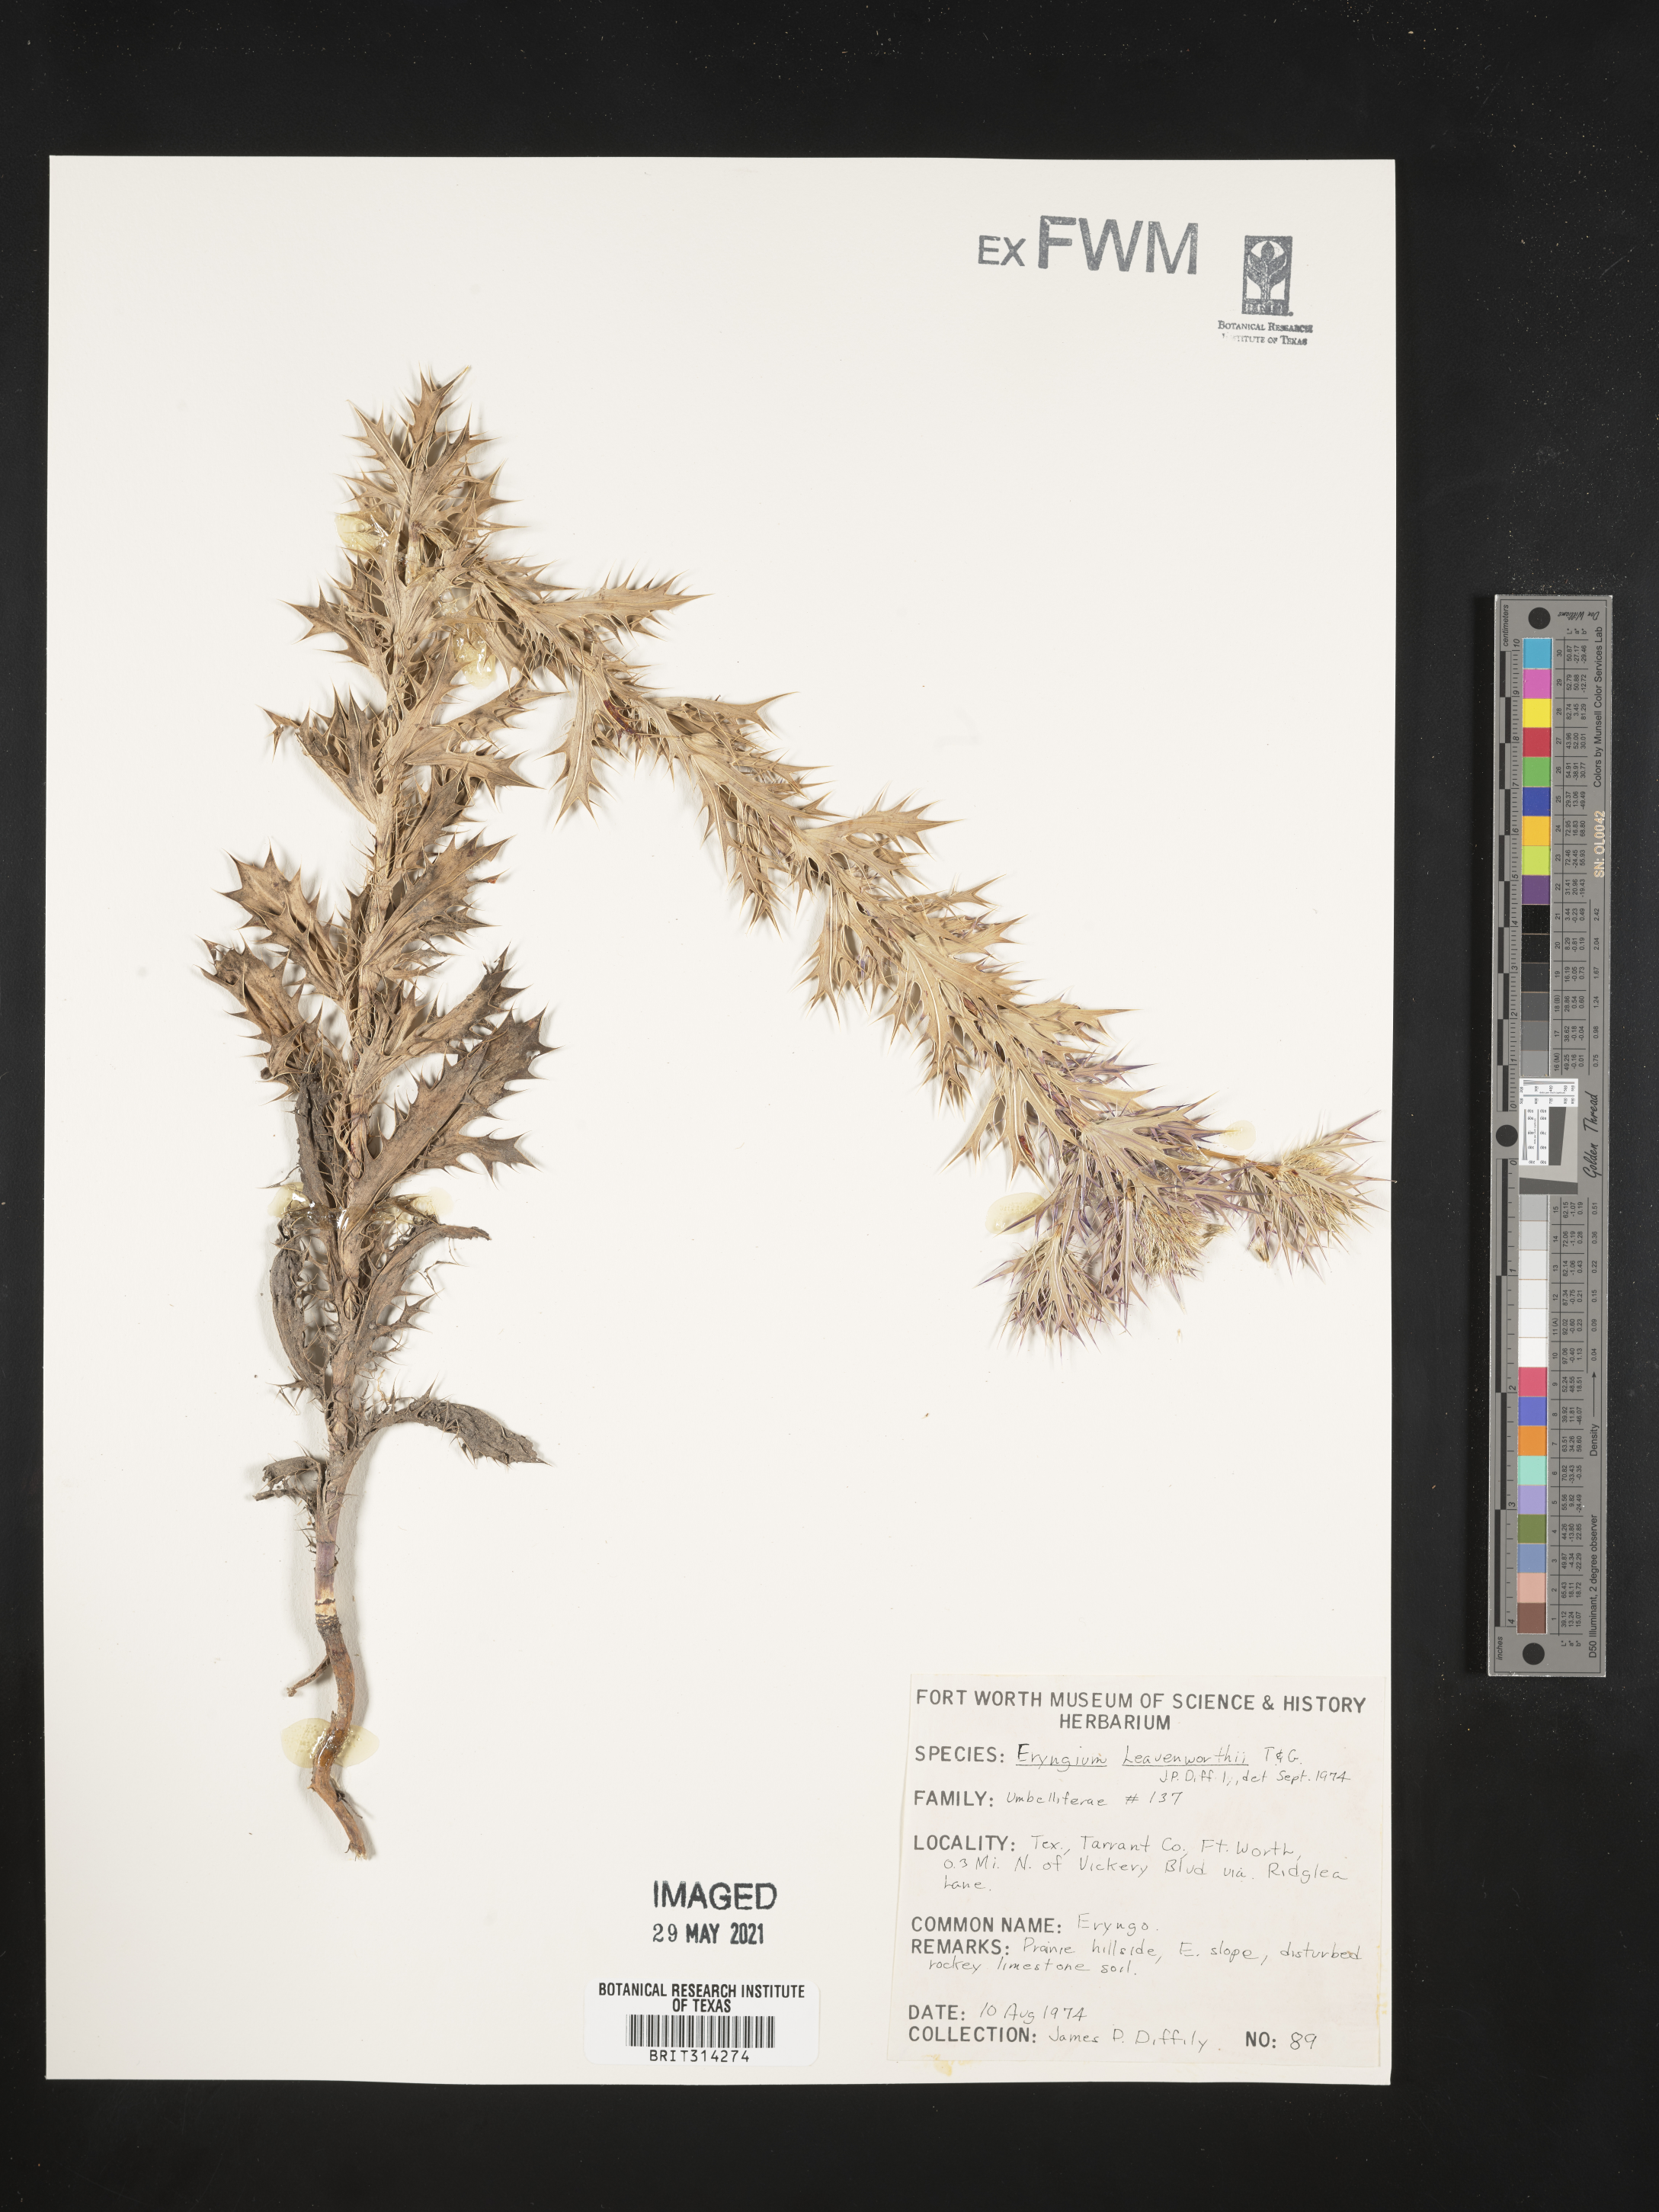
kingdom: Plantae
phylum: Tracheophyta
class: Magnoliopsida
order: Apiales
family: Apiaceae
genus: Eryngium
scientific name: Eryngium leavenworthii
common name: Leavenworth's eryngo
